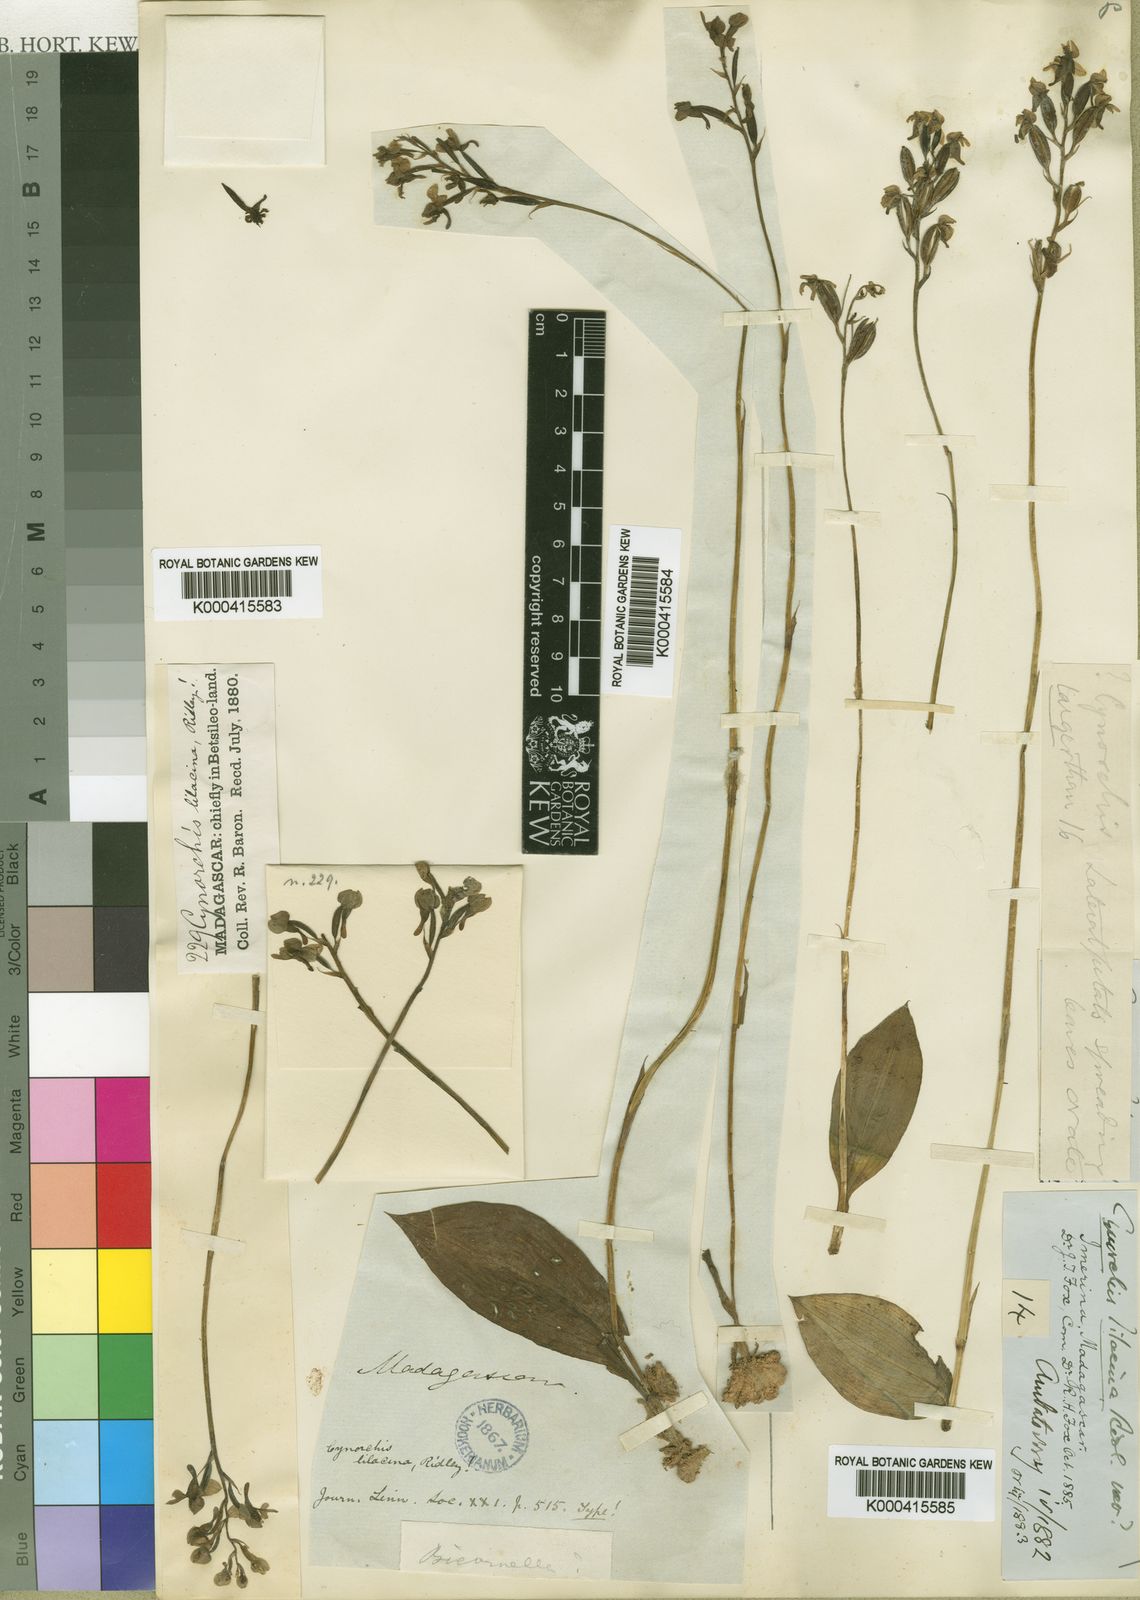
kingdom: Plantae
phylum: Tracheophyta
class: Liliopsida
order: Asparagales
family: Orchidaceae
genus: Cynorkis
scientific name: Cynorkis lilacina
